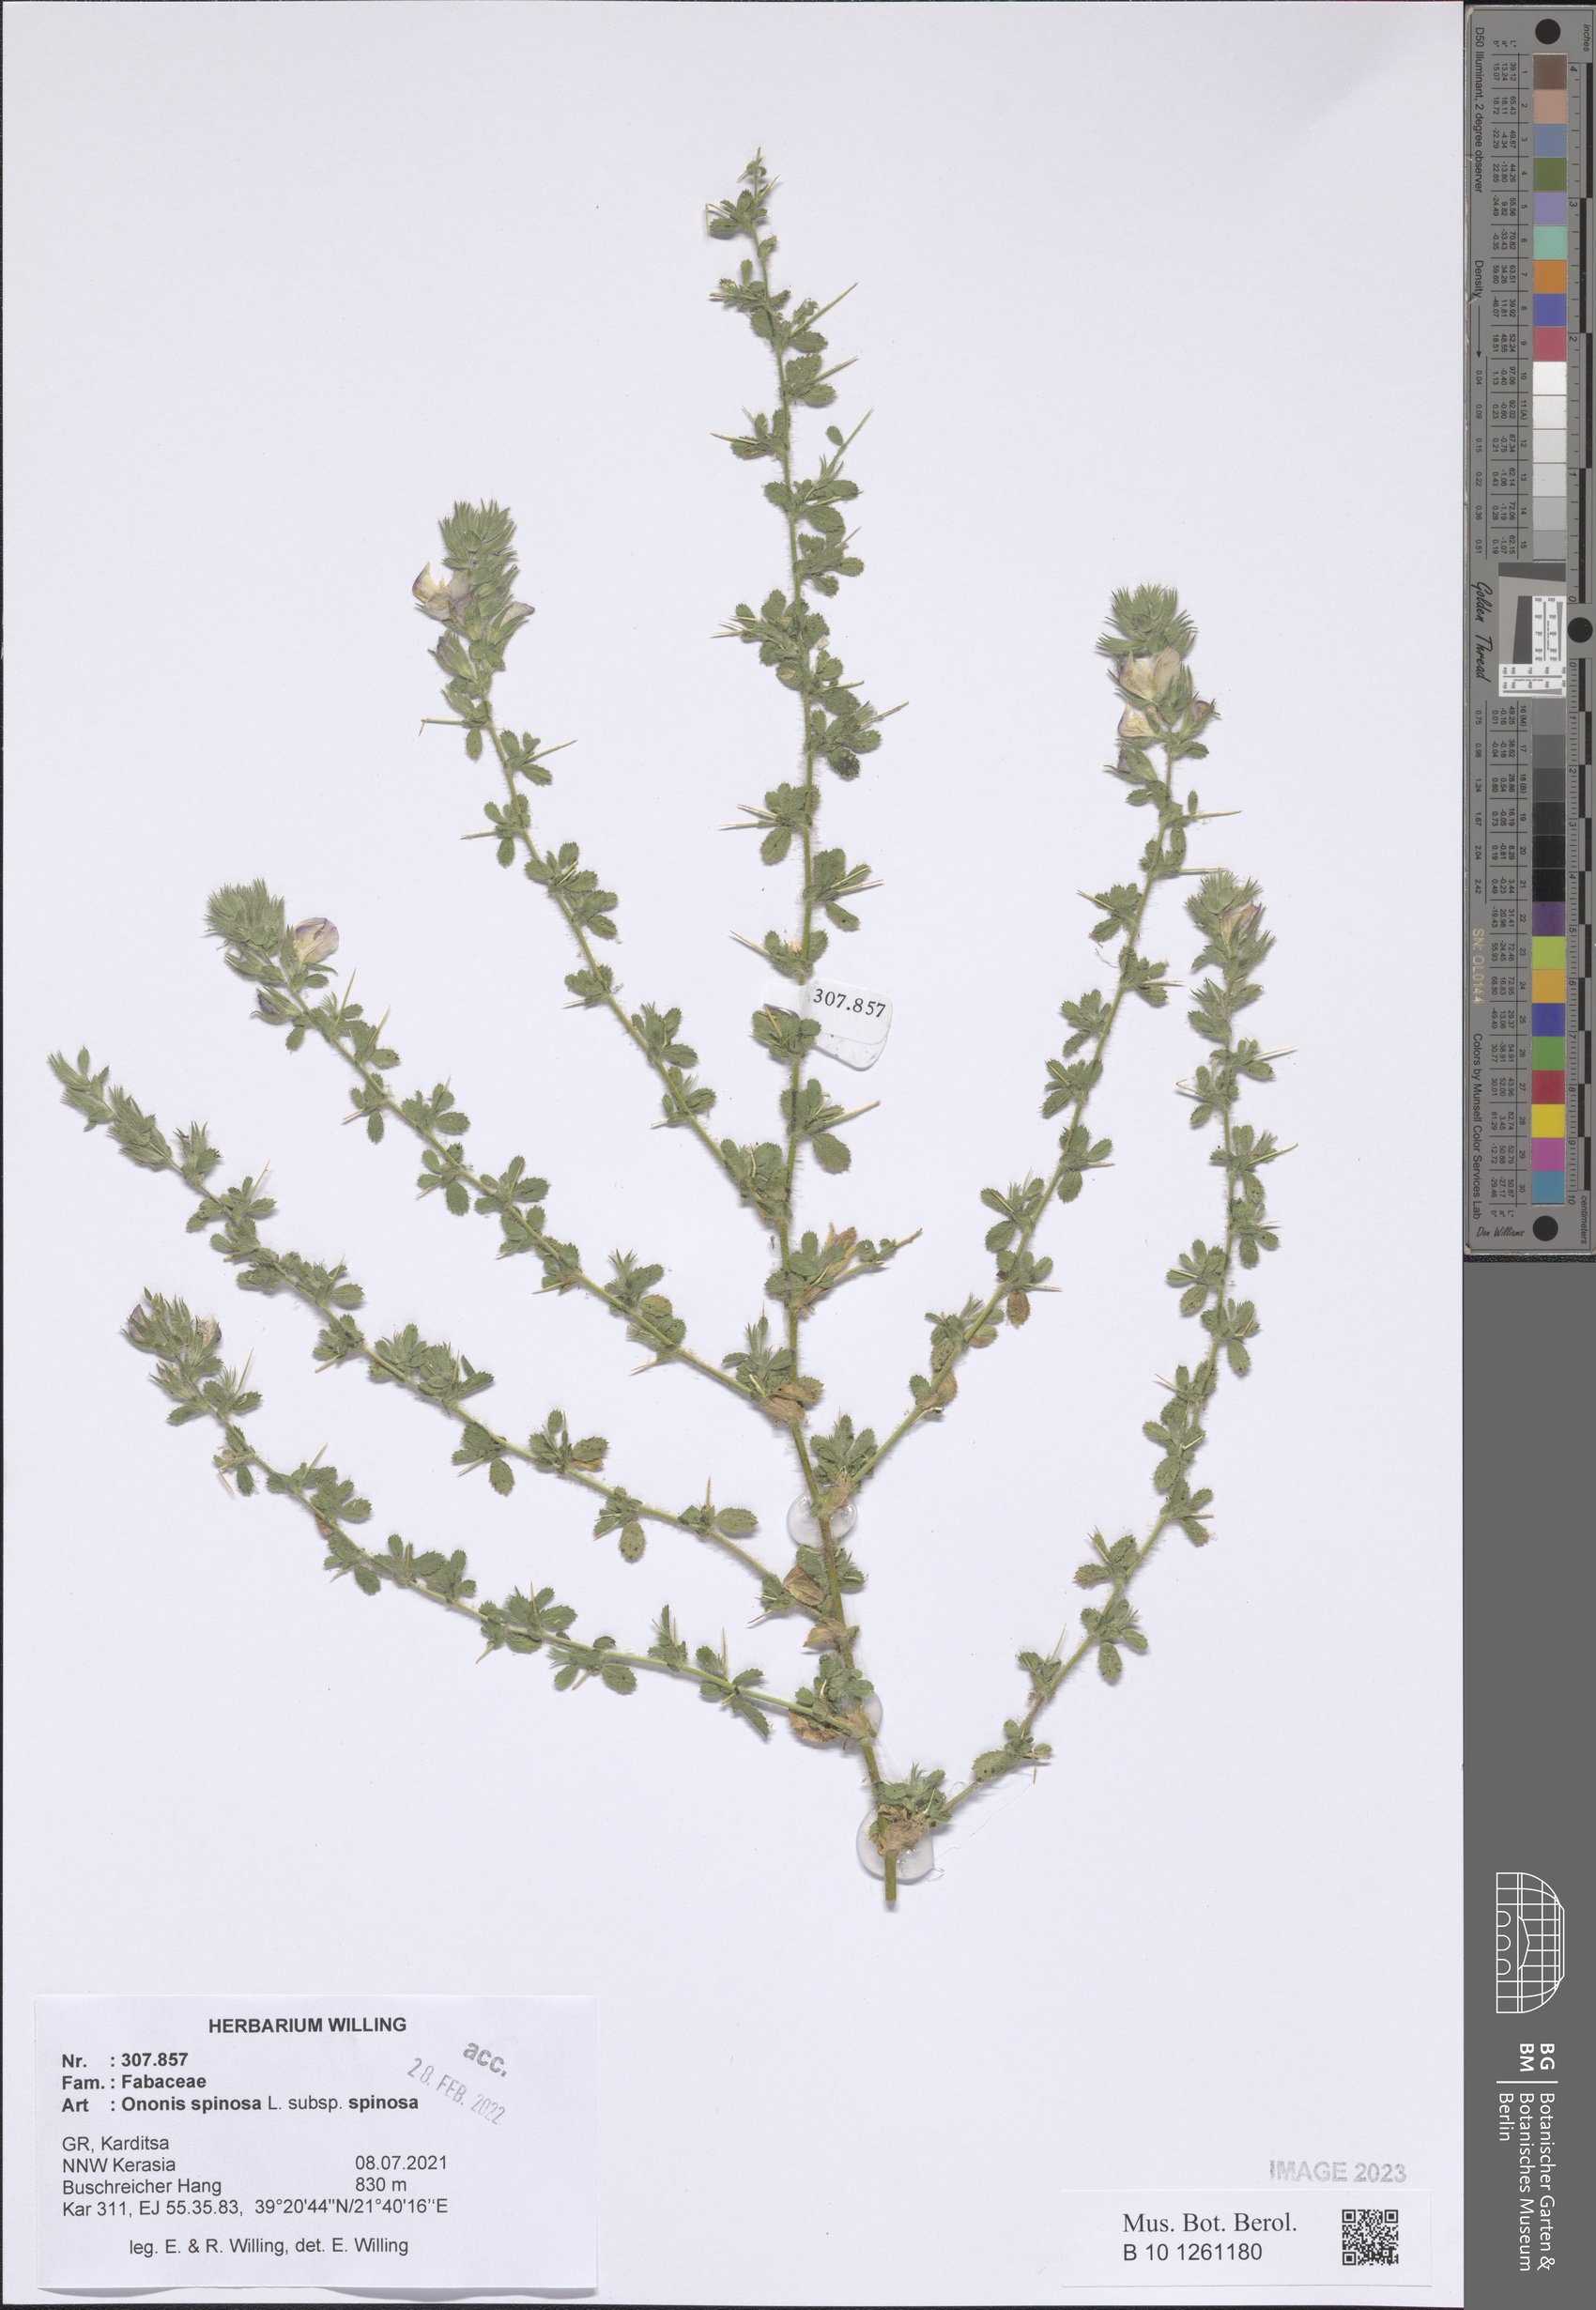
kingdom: Plantae
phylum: Tracheophyta
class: Magnoliopsida
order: Fabales
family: Fabaceae
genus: Ononis
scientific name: Ononis spinosa
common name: Spiny restharrow
